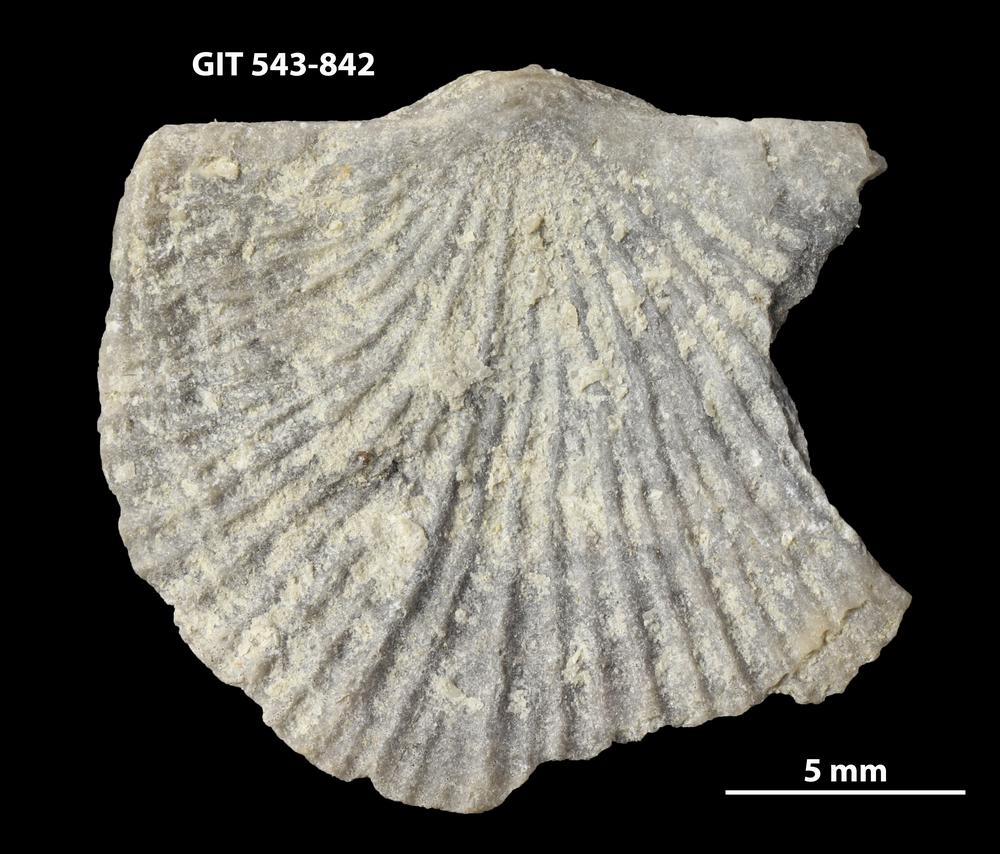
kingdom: Animalia
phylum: Brachiopoda
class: Rhynchonellata
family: Clitambonitidae
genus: Vellamo
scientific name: Vellamo oandoensis
